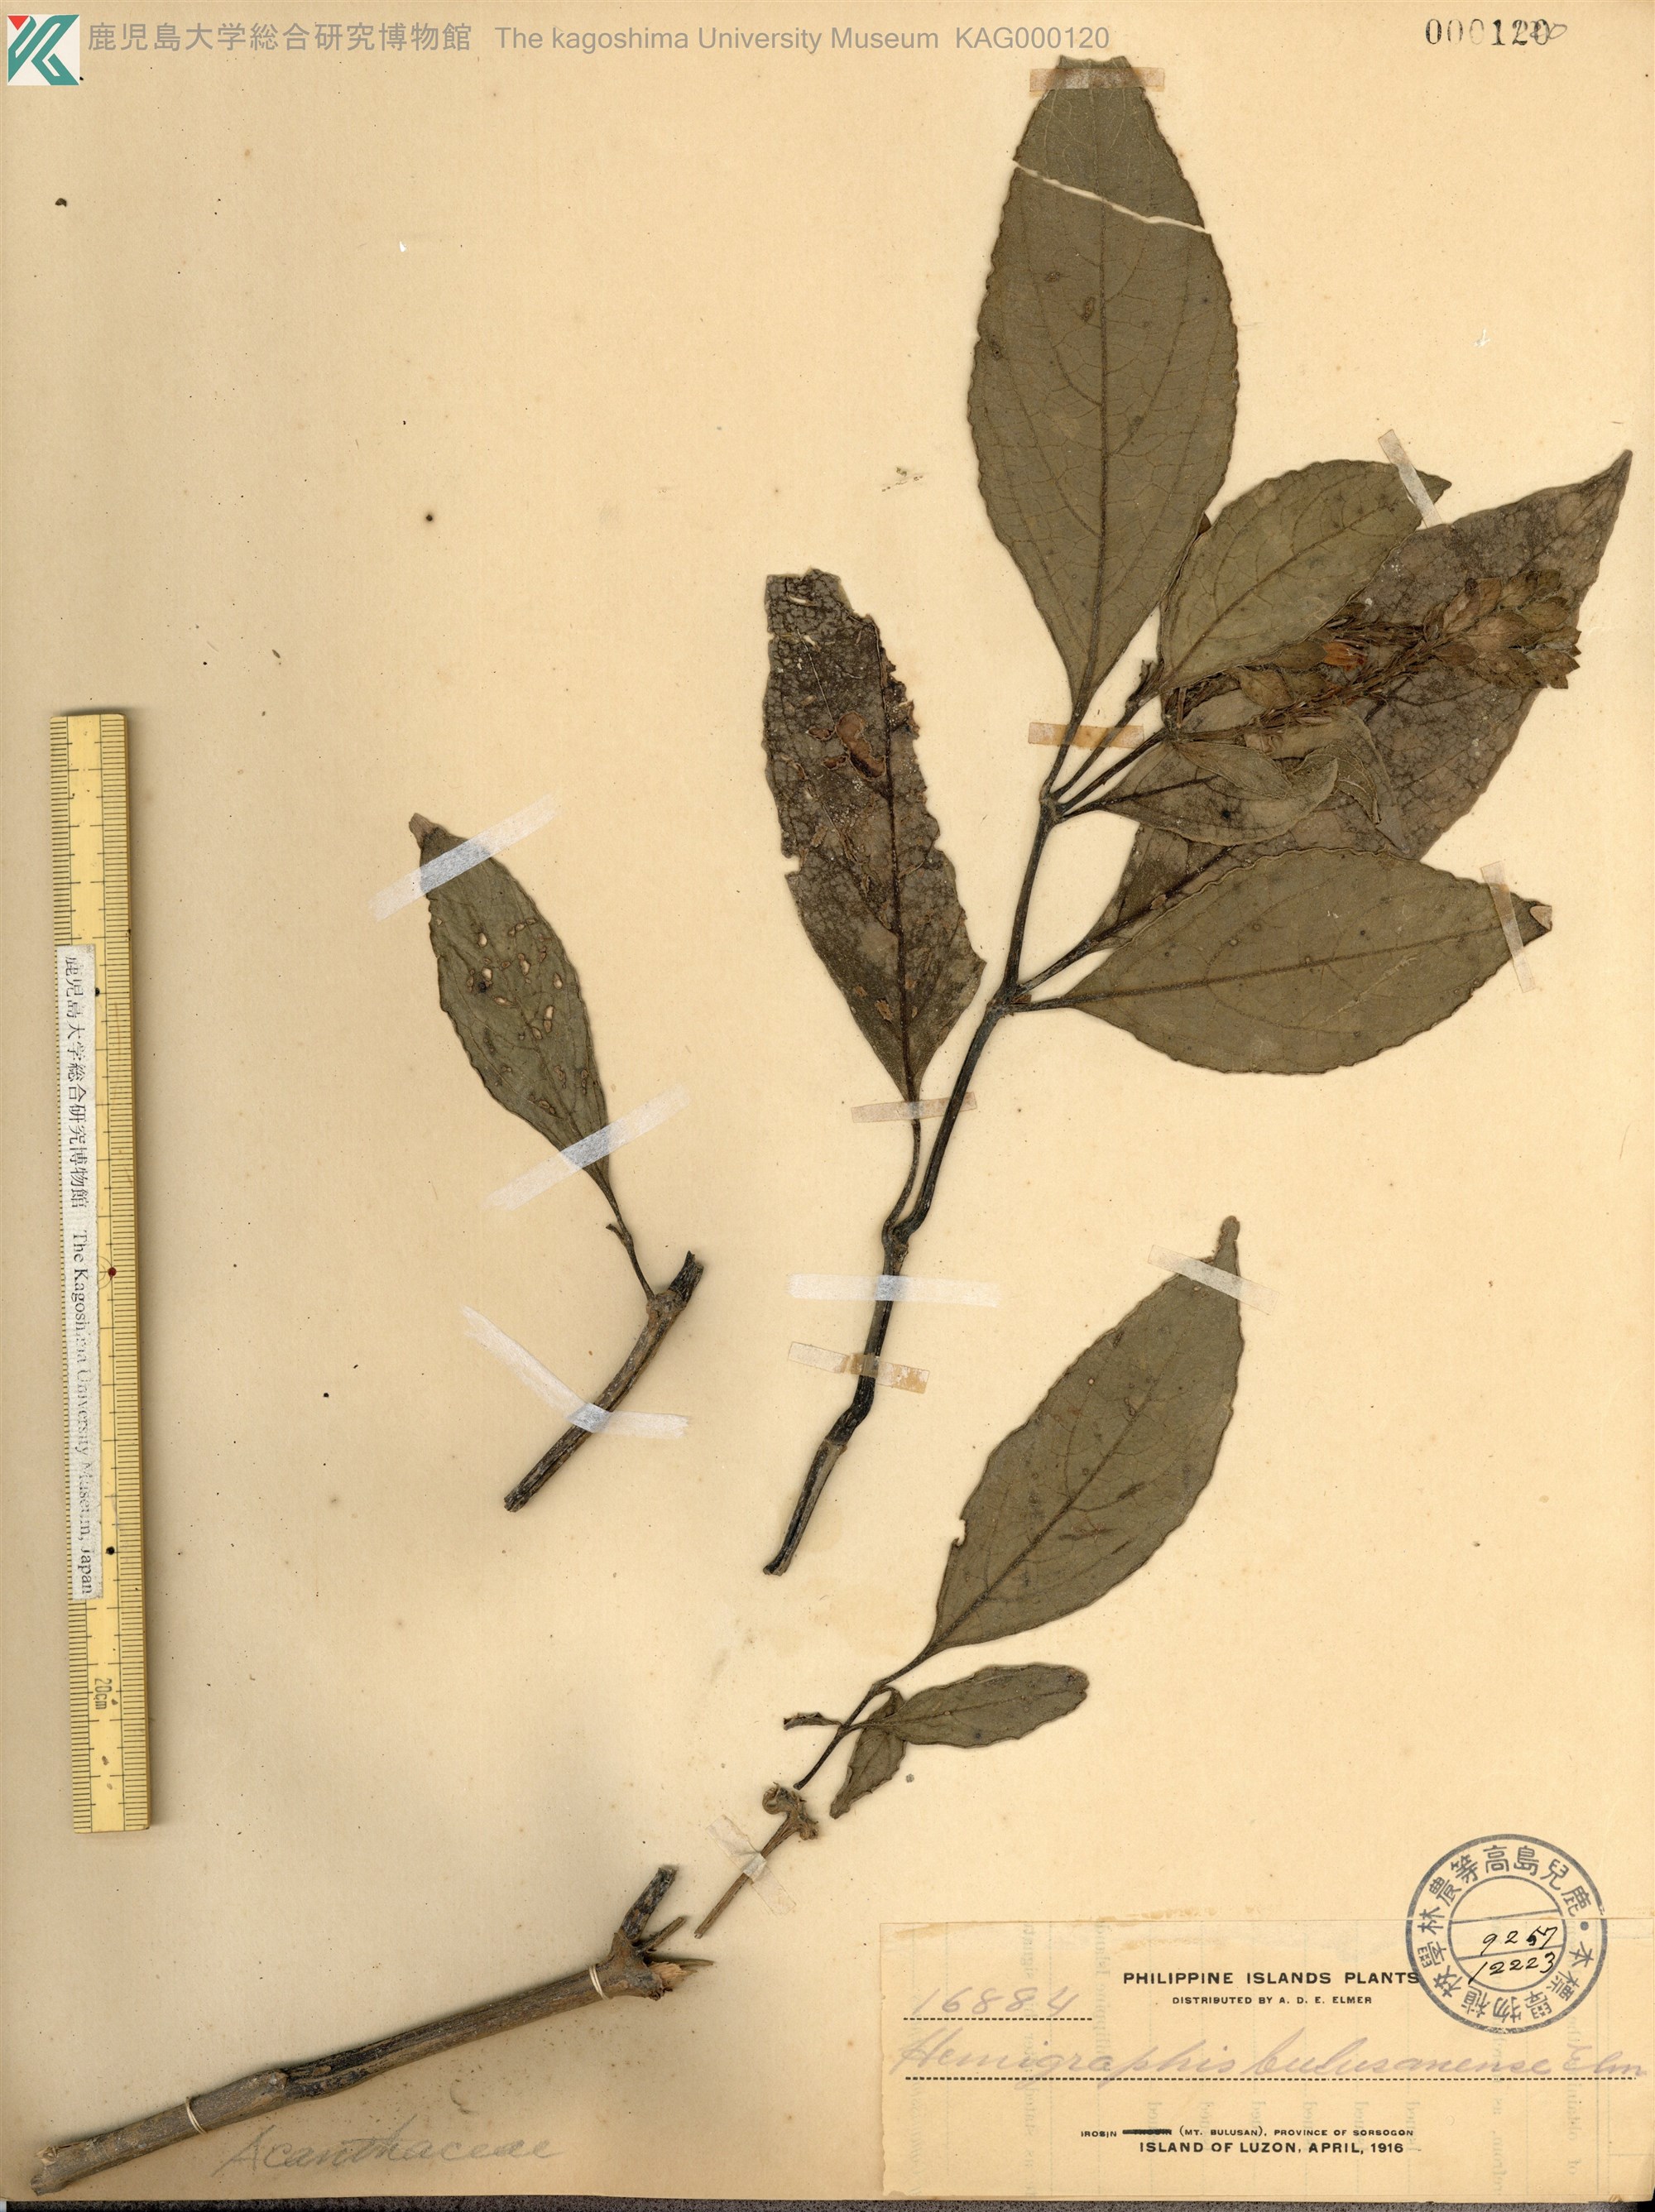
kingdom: Plantae
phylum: Tracheophyta
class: Magnoliopsida
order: Lamiales
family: Acanthaceae
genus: Hemigraphis
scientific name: Hemigraphis
